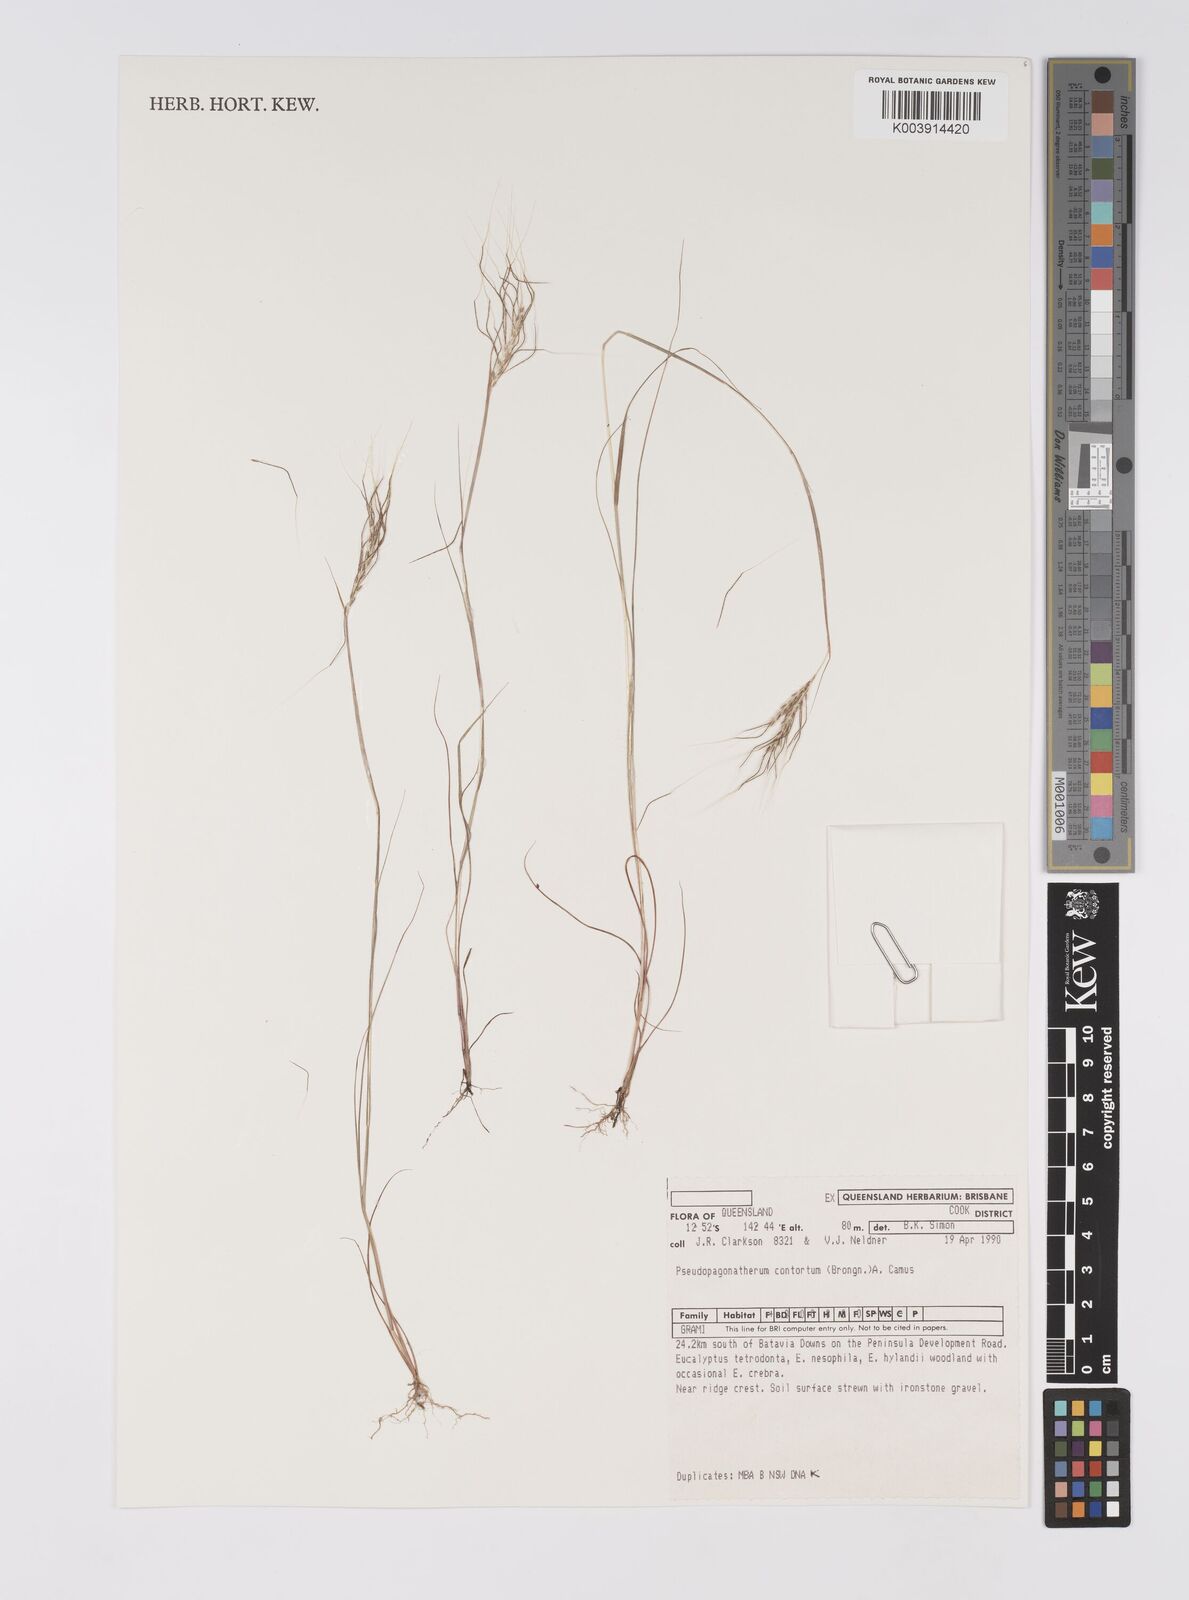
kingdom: Plantae
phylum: Tracheophyta
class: Liliopsida
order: Poales
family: Poaceae
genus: Pseudopogonatherum
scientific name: Pseudopogonatherum contortum
